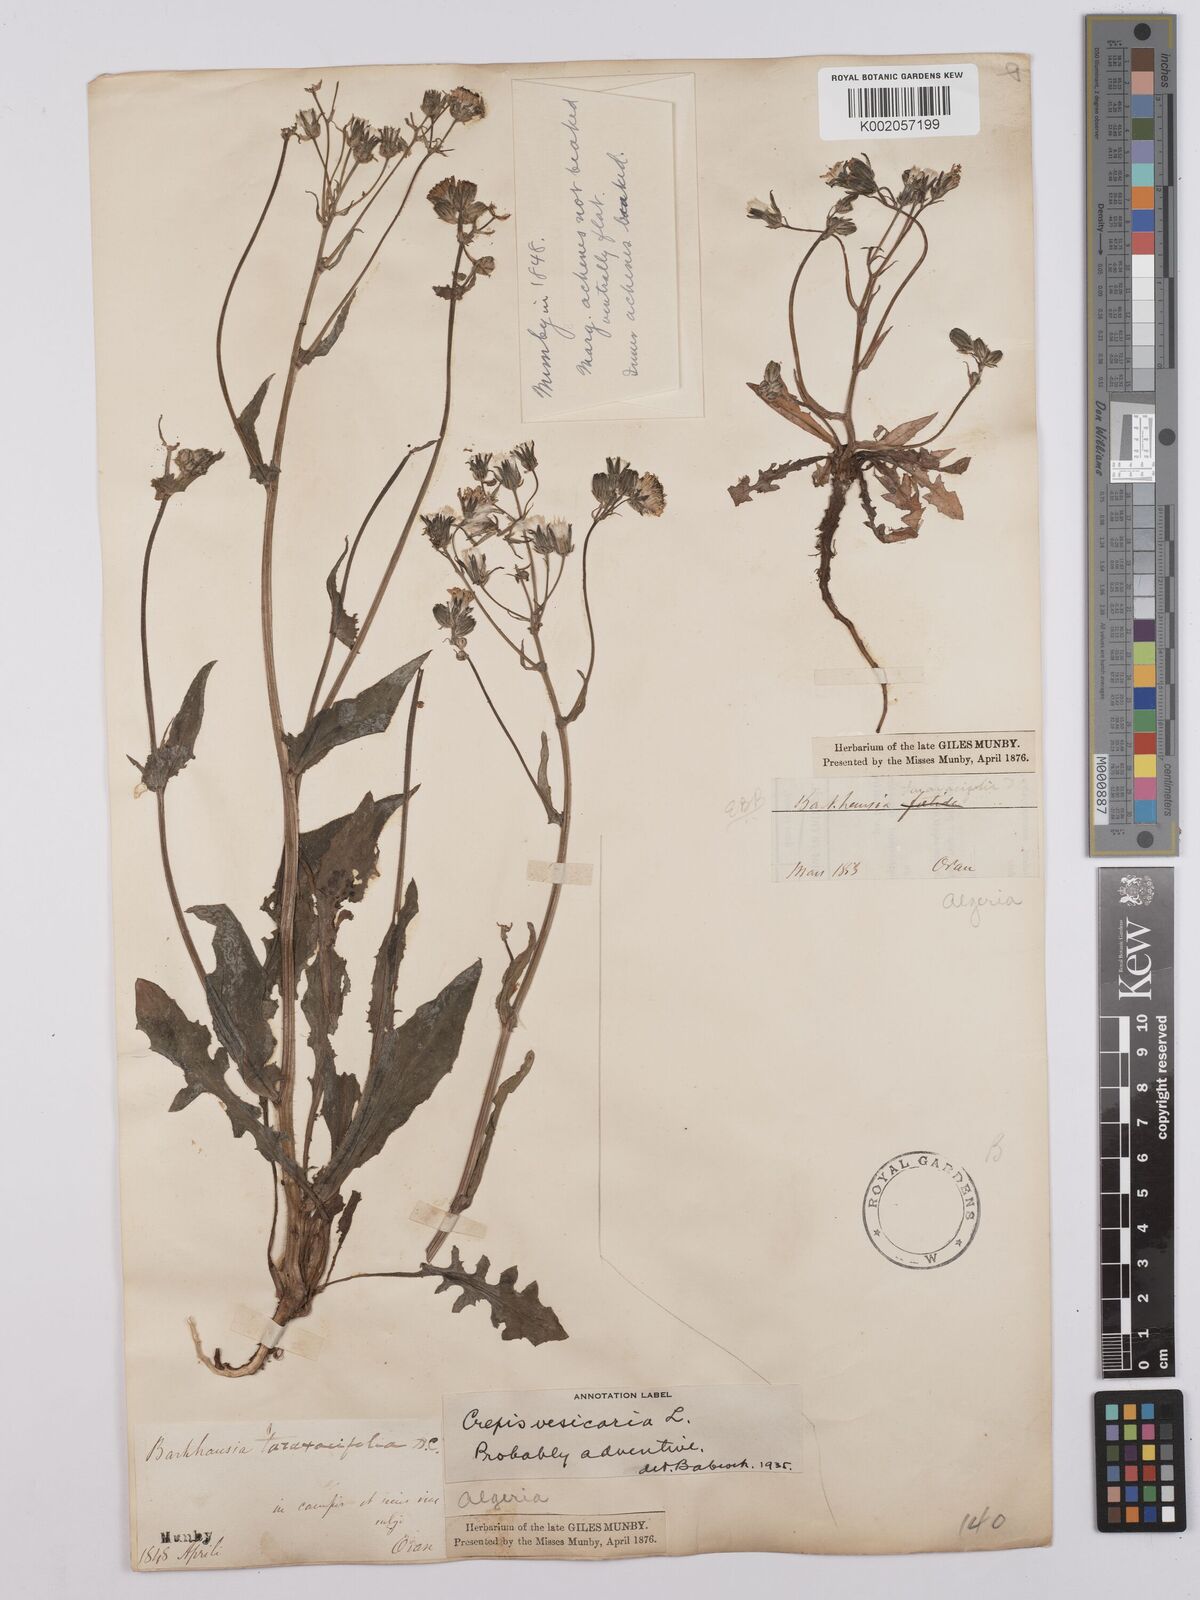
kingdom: Plantae
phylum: Tracheophyta
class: Magnoliopsida
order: Asterales
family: Asteraceae
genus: Crepis
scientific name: Crepis vesicaria
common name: Beaked hawksbeard
